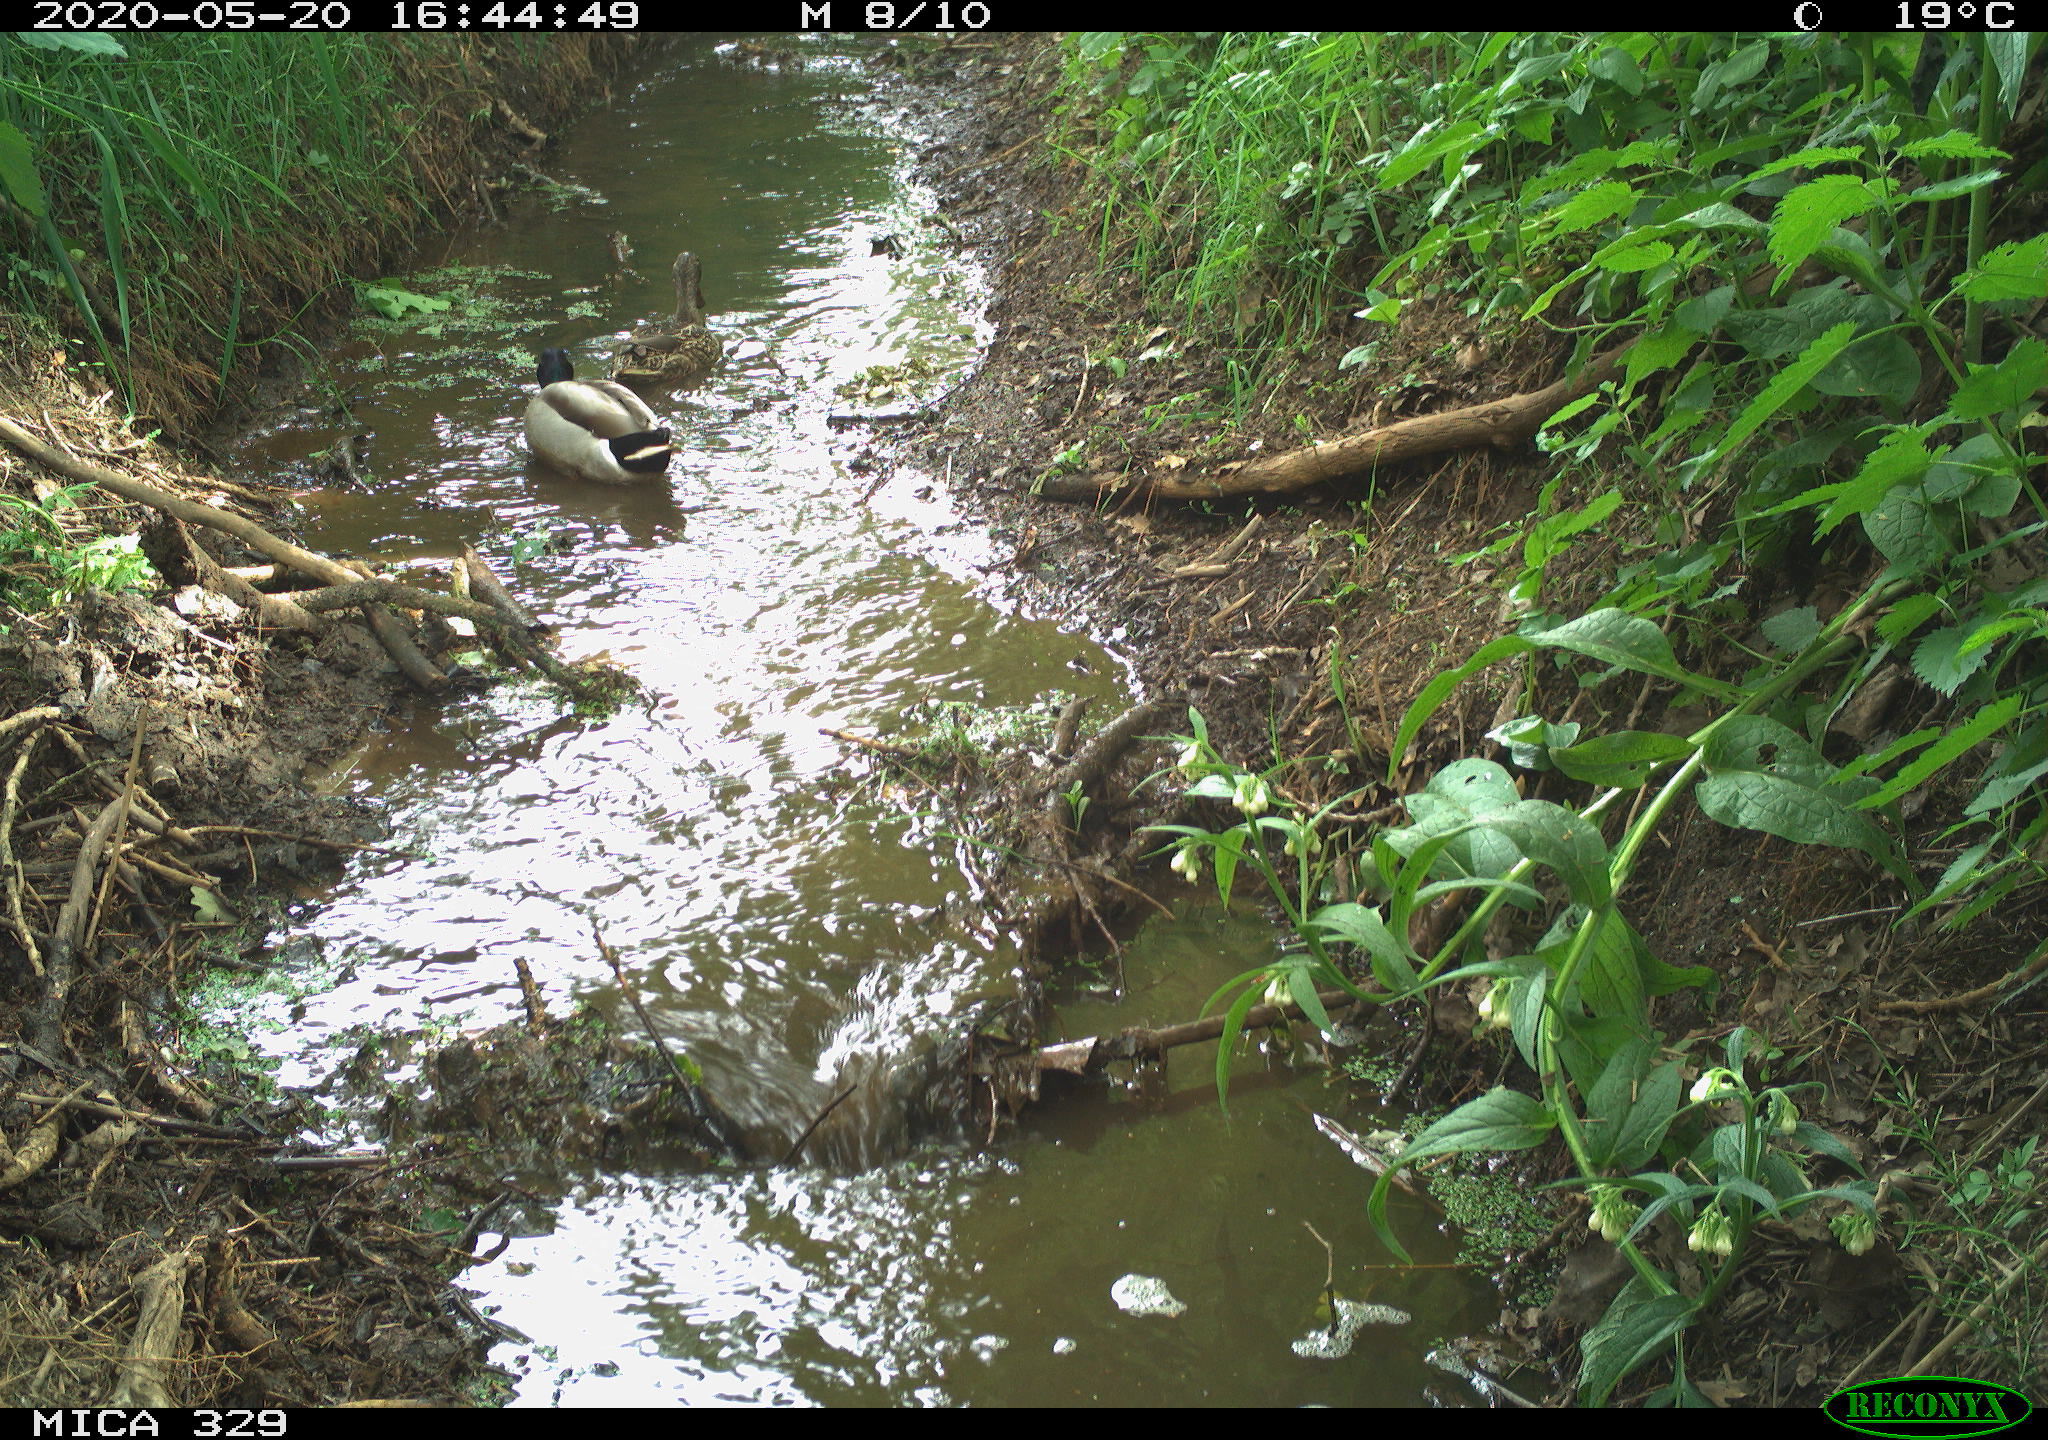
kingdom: Animalia
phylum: Chordata
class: Aves
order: Anseriformes
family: Anatidae
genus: Anas
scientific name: Anas platyrhynchos
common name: Mallard
